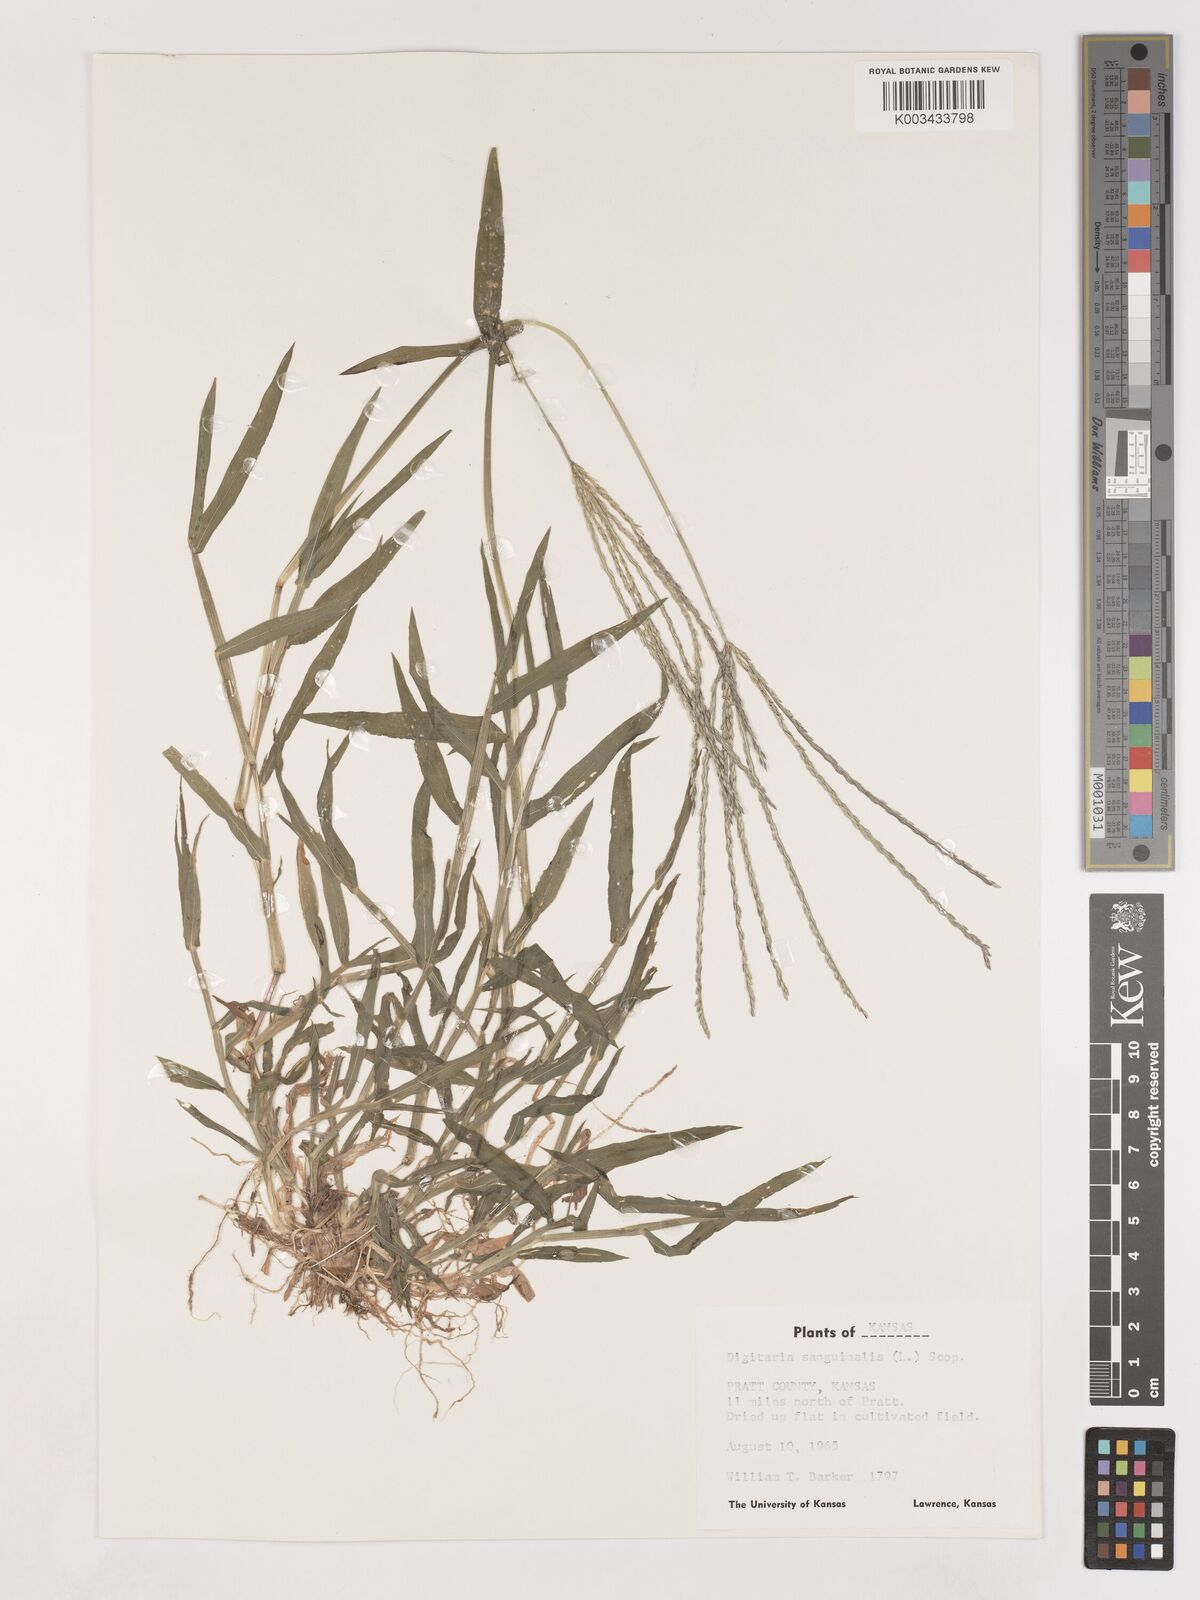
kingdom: Plantae
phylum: Tracheophyta
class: Liliopsida
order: Poales
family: Poaceae
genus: Digitaria
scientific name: Digitaria sanguinalis
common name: Hairy crabgrass
